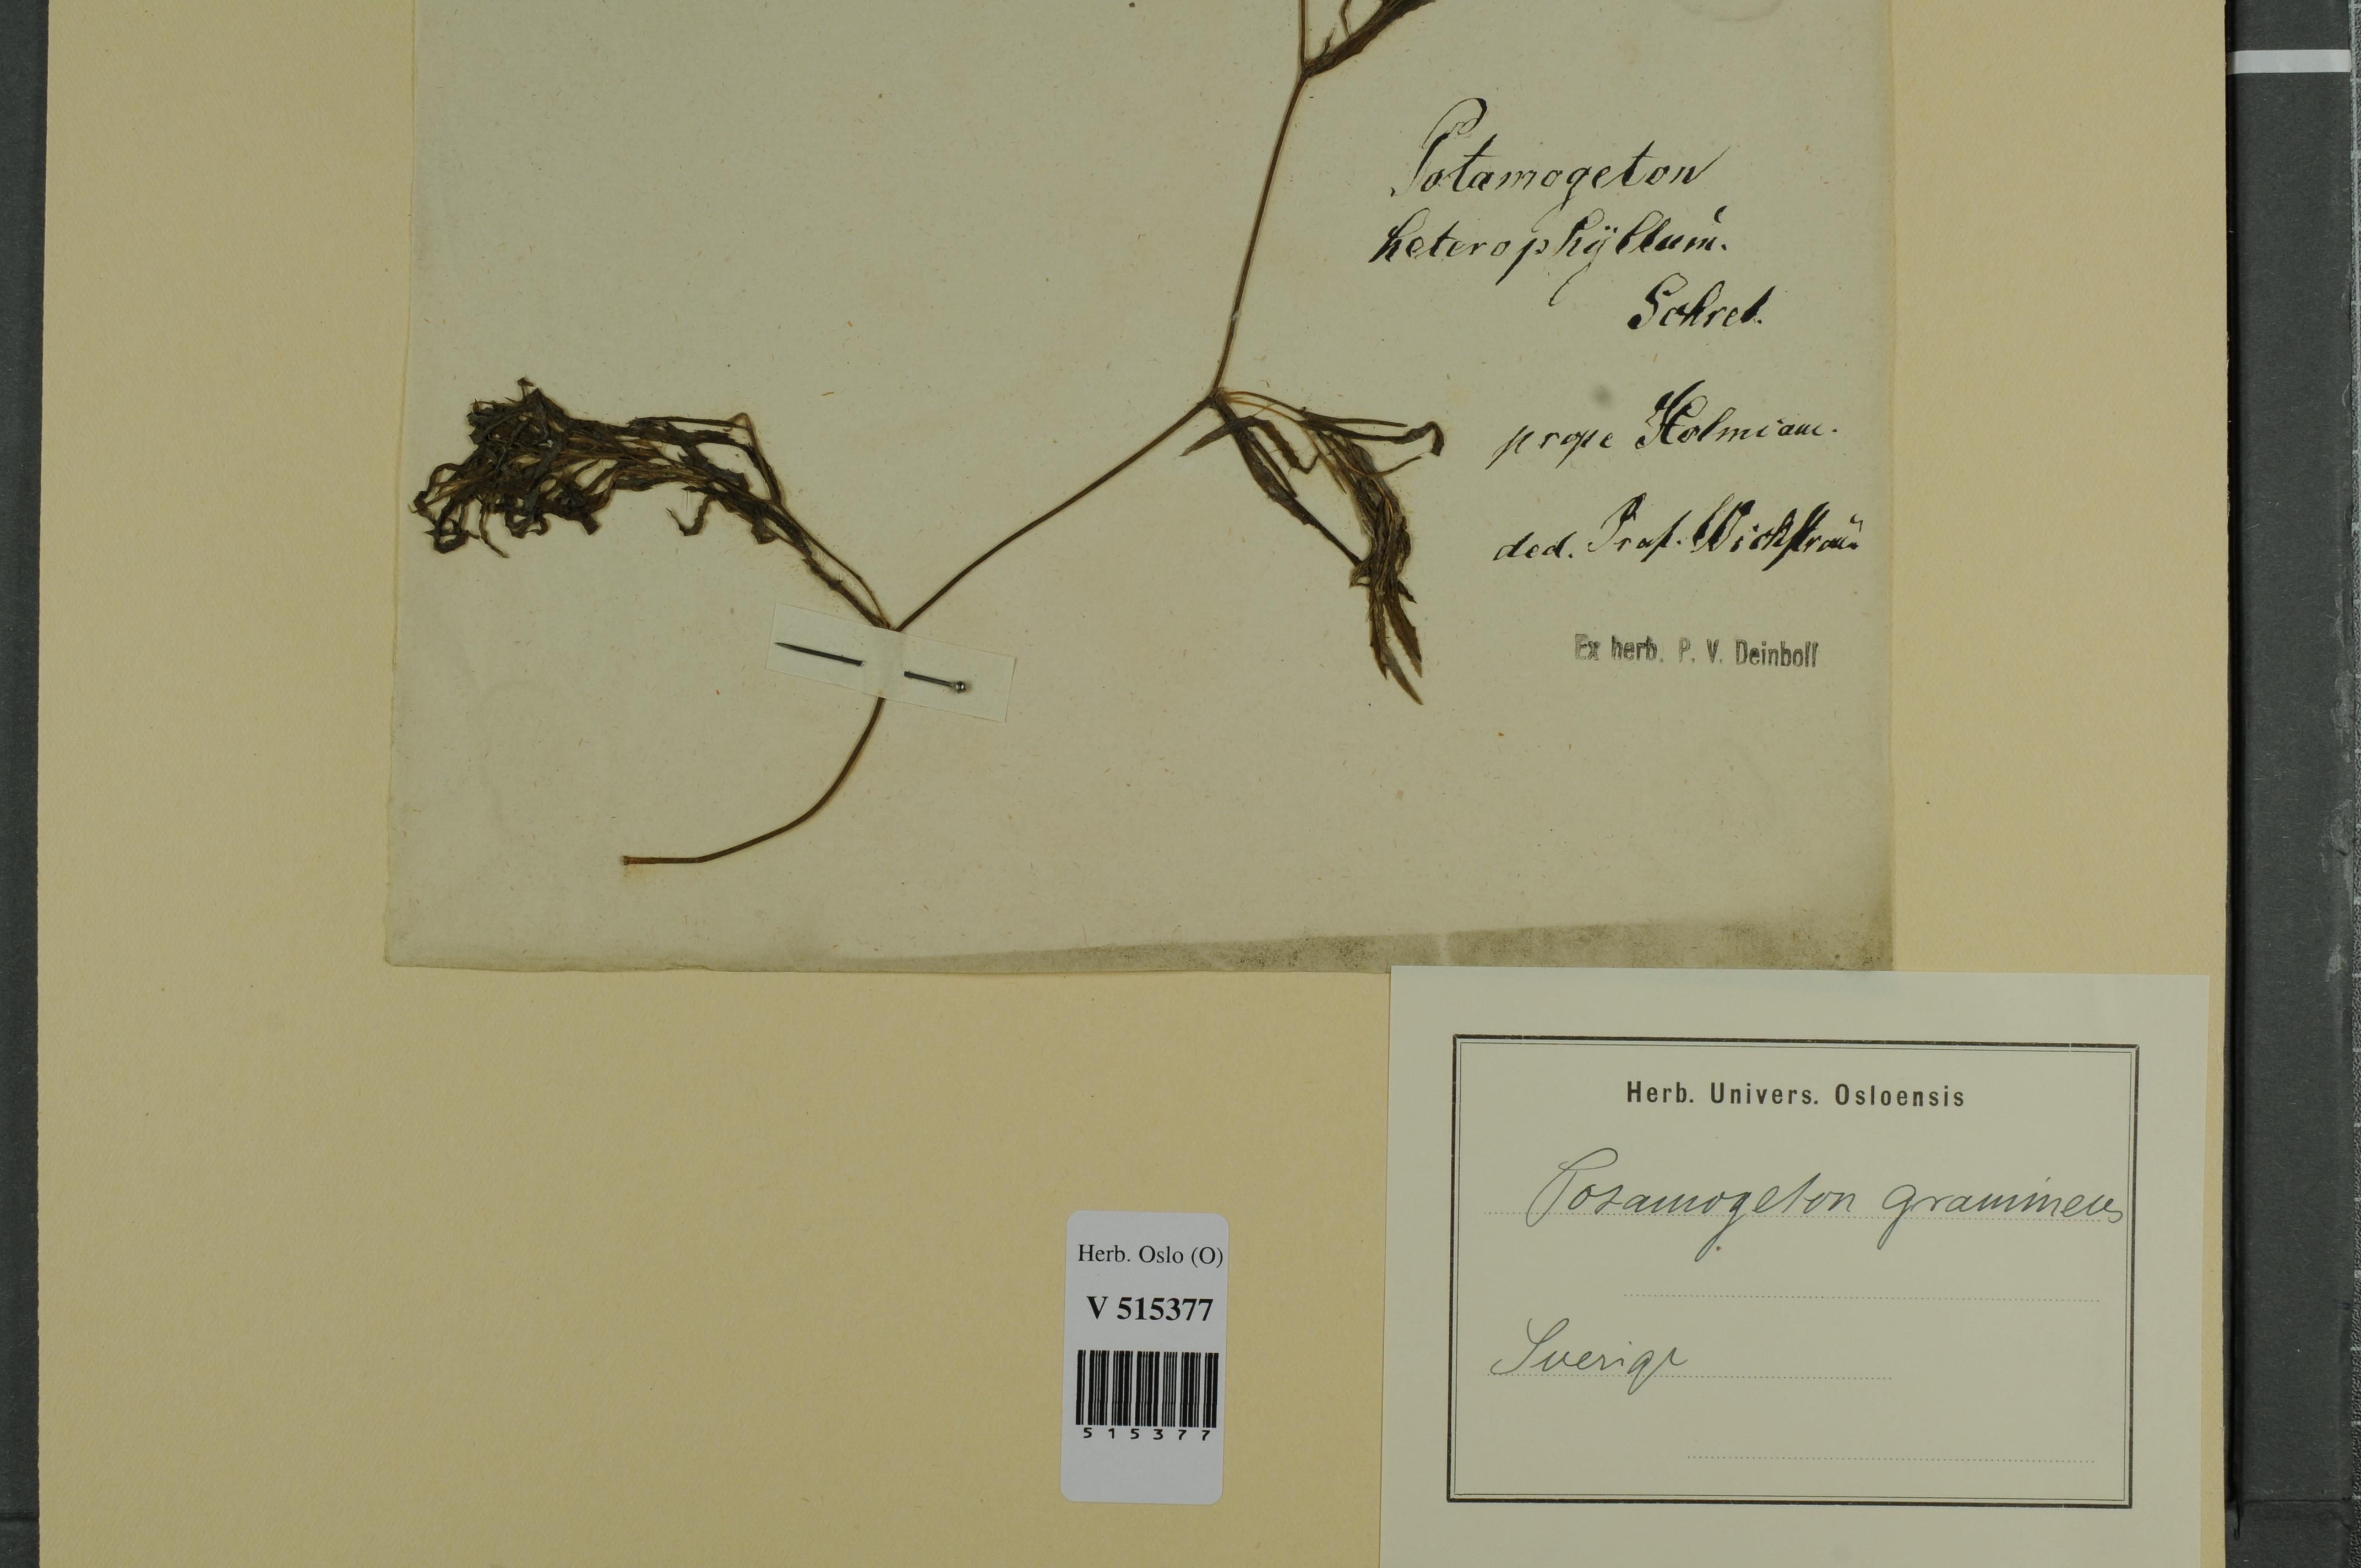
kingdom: Plantae
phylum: Tracheophyta
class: Liliopsida
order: Alismatales
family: Potamogetonaceae
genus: Potamogeton
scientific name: Potamogeton gramineus
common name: Various-leaved pondweed
